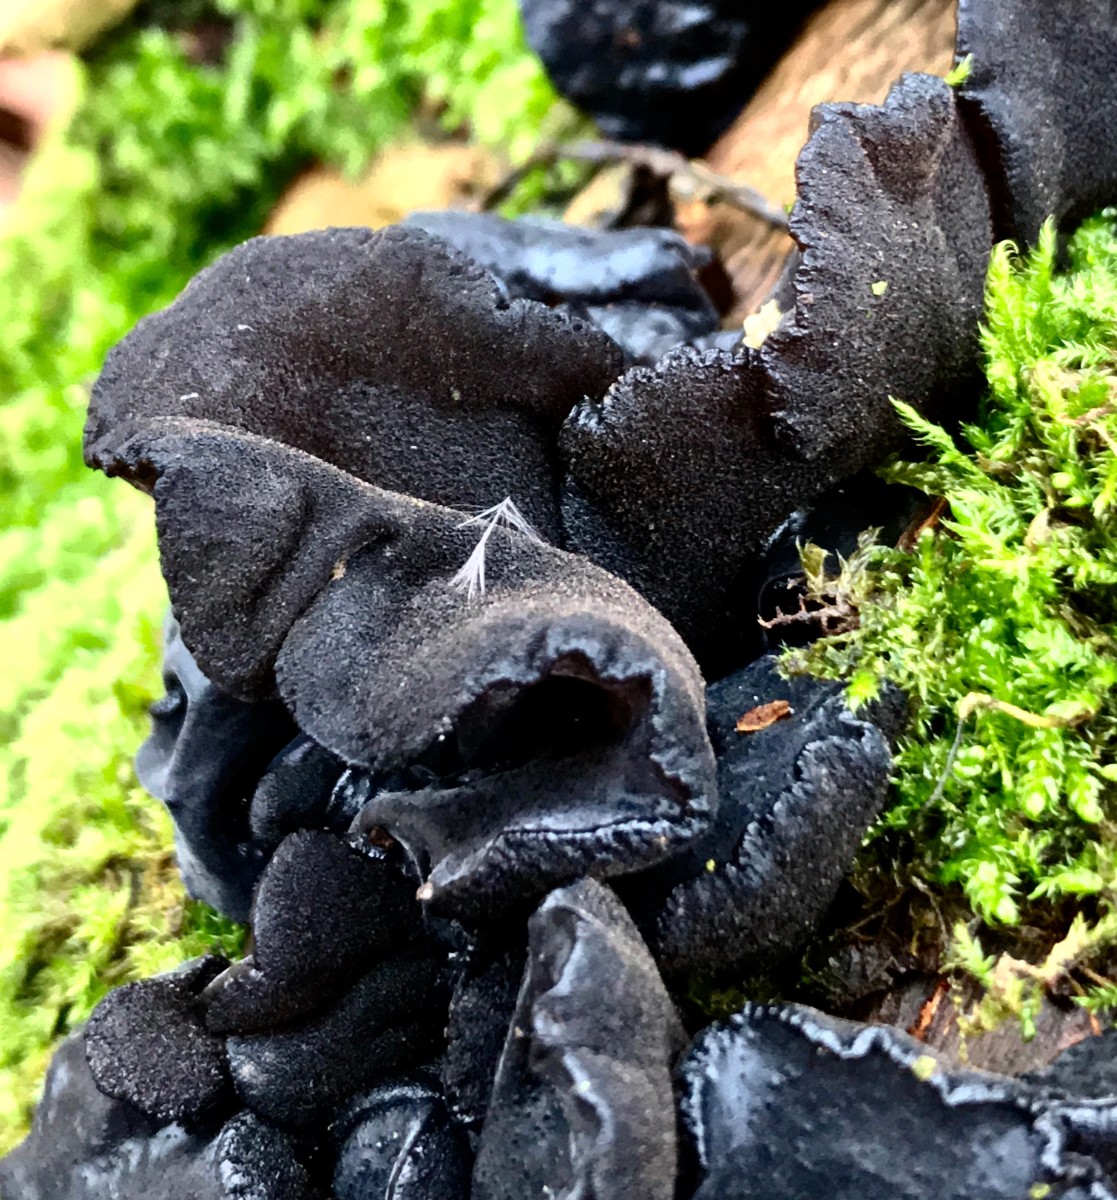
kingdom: Fungi
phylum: Basidiomycota
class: Agaricomycetes
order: Auriculariales
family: Auriculariaceae
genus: Exidia
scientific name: Exidia glandulosa
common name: ege-bævretop
